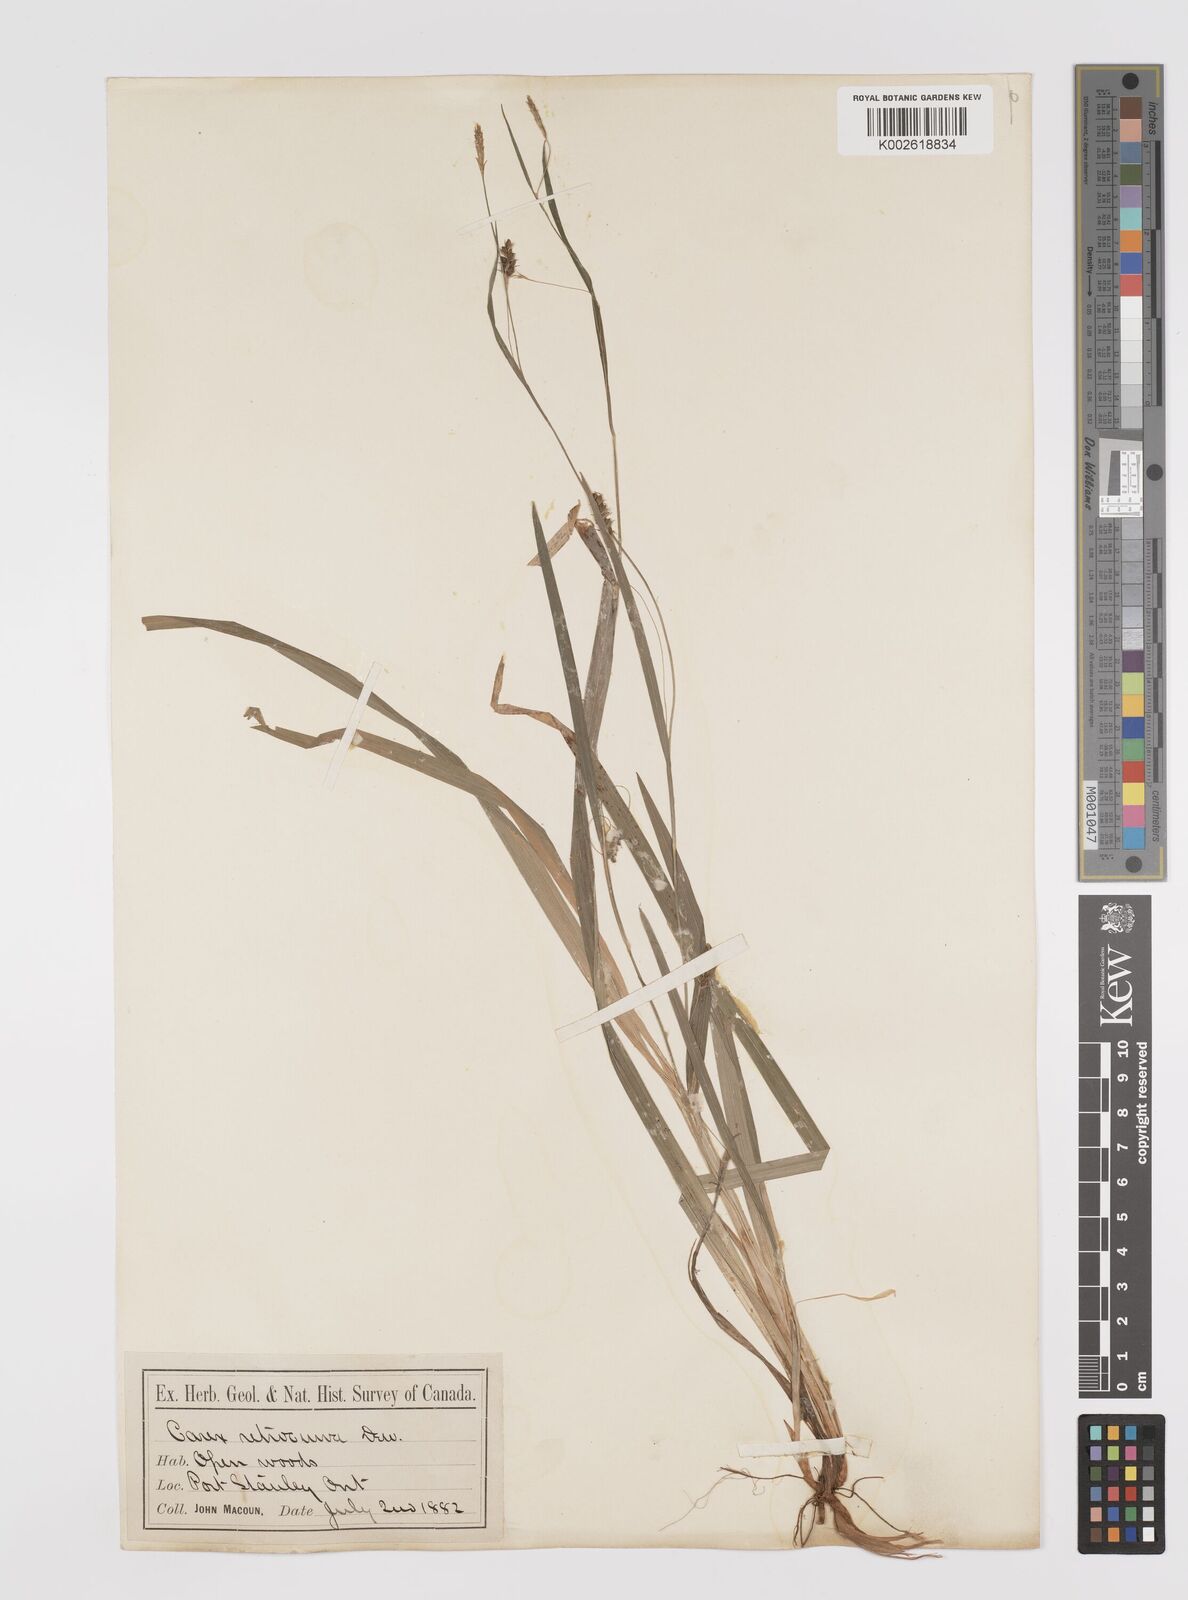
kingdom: Plantae
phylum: Tracheophyta
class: Liliopsida
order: Poales
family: Cyperaceae
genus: Carex
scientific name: Carex laxiculmis
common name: Spreading sedge
